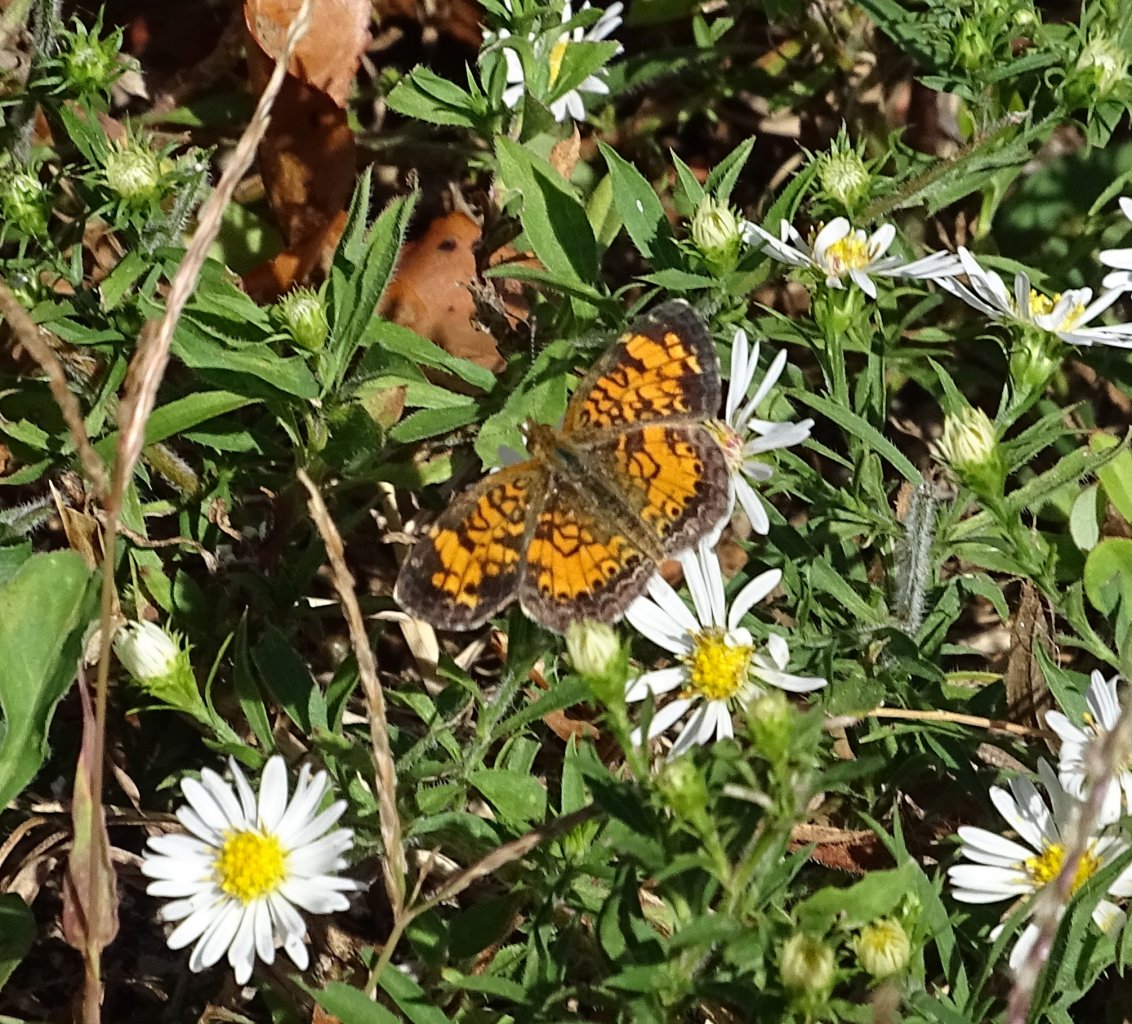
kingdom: Animalia
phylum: Arthropoda
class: Insecta
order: Lepidoptera
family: Nymphalidae
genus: Phyciodes
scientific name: Phyciodes tharos
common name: Pearl Crescent
